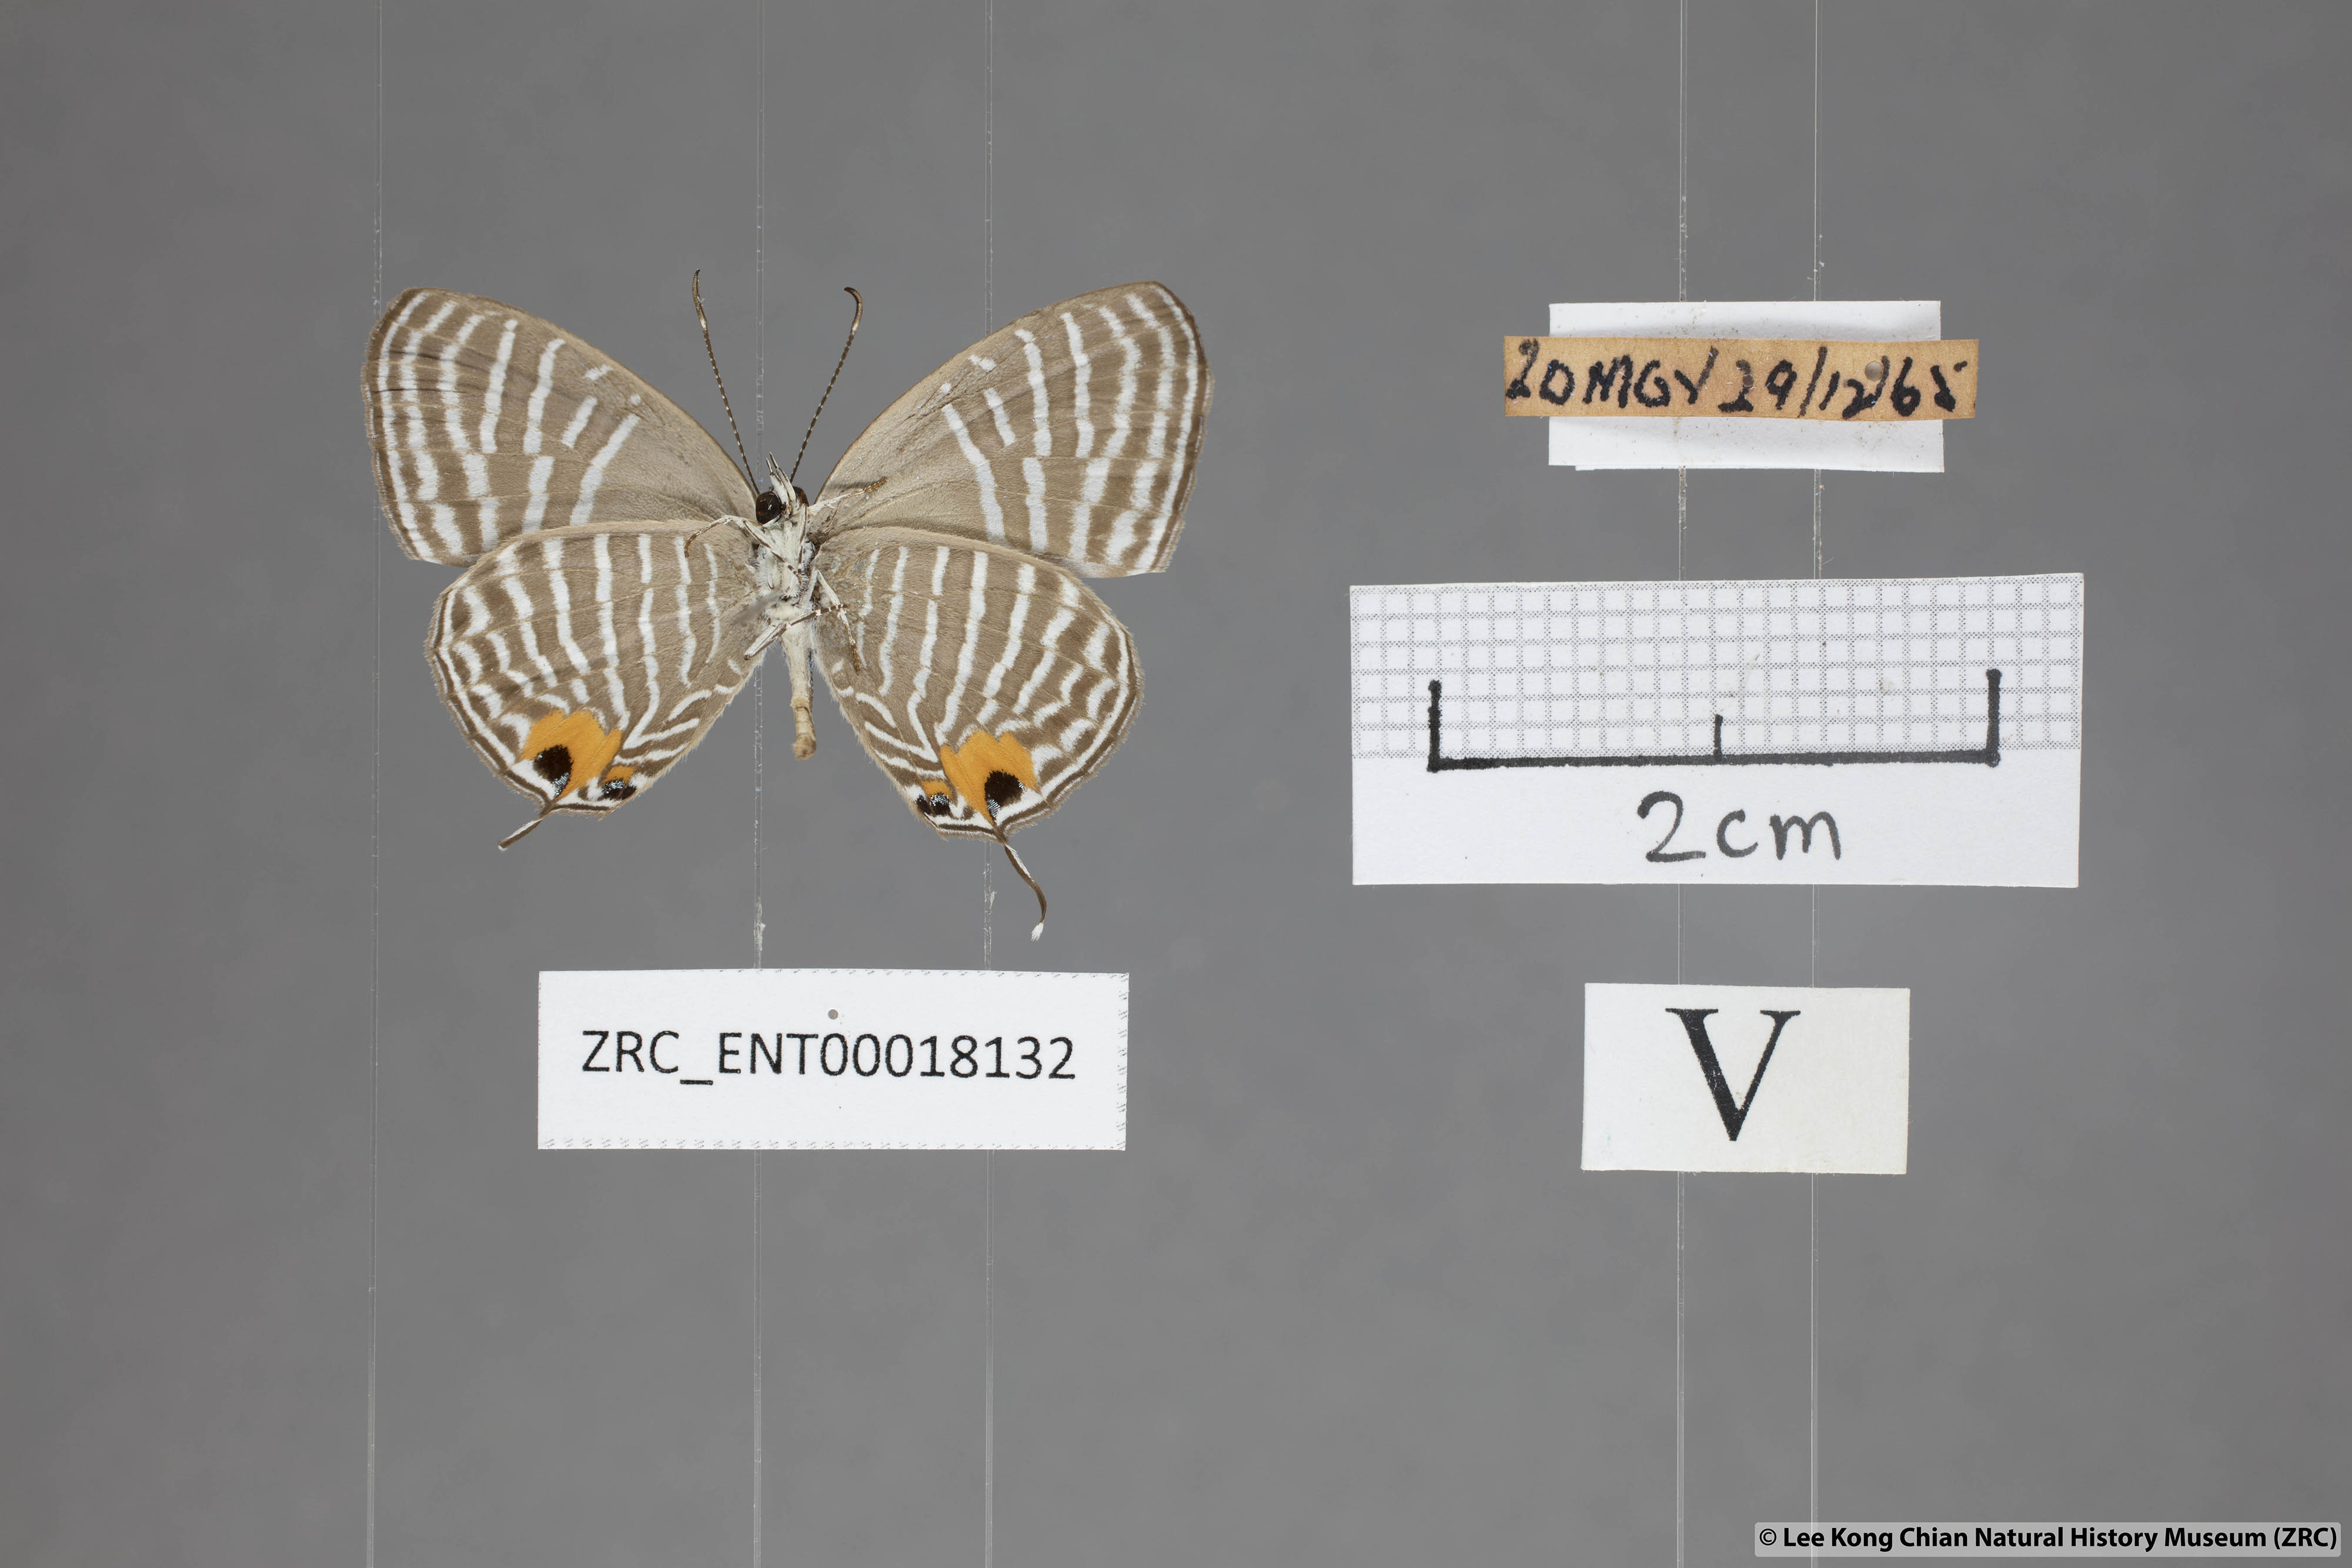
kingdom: Animalia
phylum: Arthropoda
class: Insecta
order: Lepidoptera
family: Lycaenidae
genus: Jamides
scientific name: Jamides malaccanus
